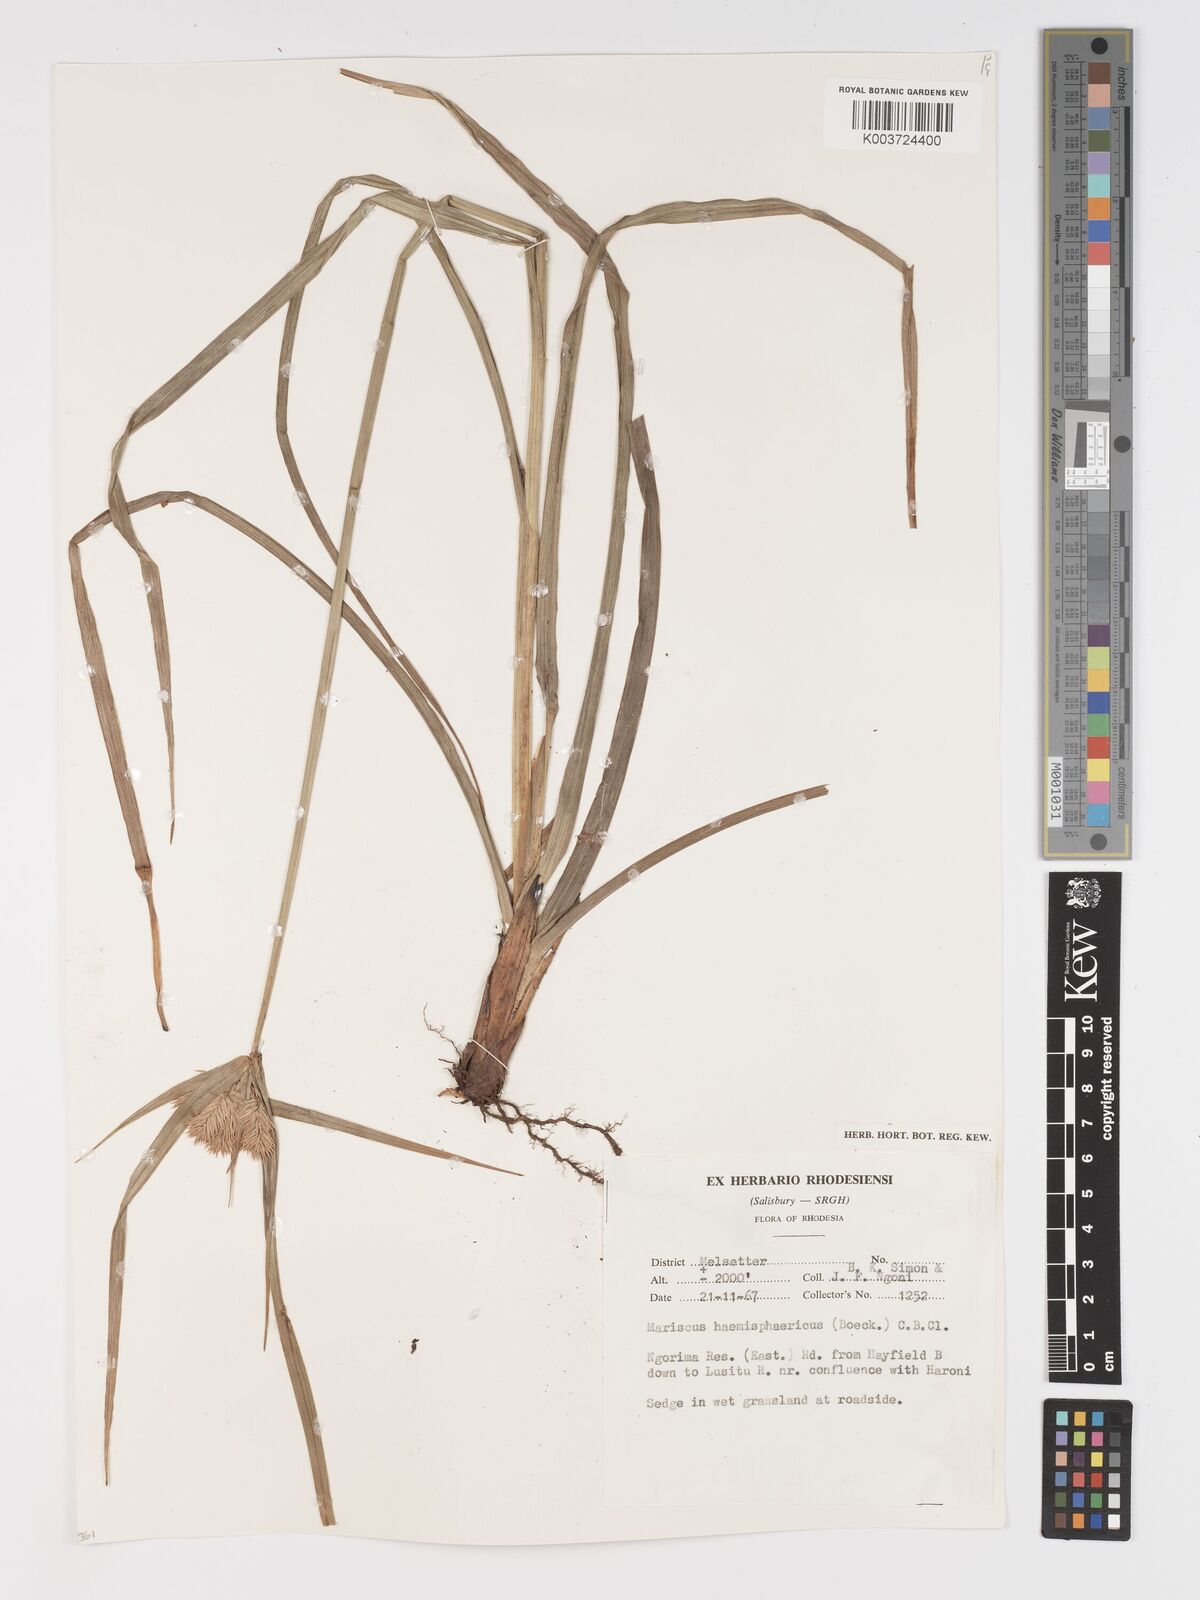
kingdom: Plantae
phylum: Tracheophyta
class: Liliopsida
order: Poales
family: Cyperaceae
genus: Cyperus
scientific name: Cyperus hemisphaericus
